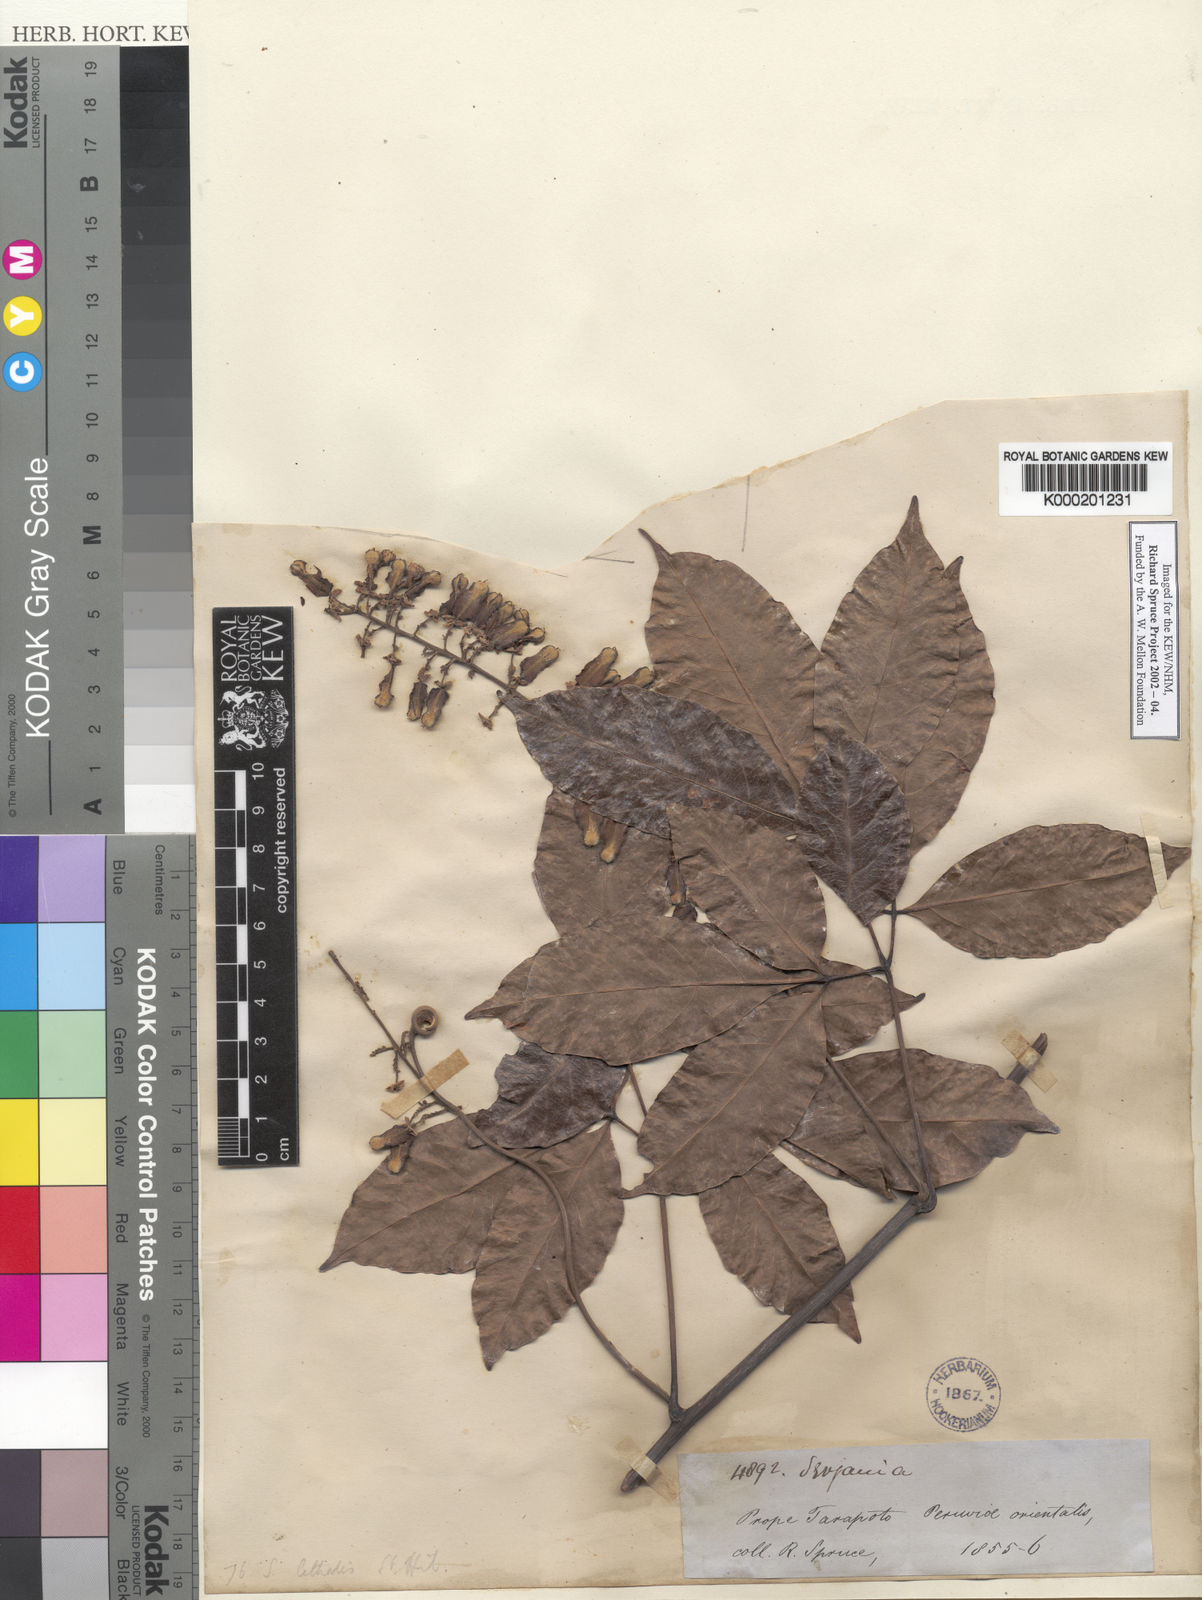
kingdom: Plantae
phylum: Tracheophyta
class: Magnoliopsida
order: Sapindales
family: Sapindaceae
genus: Serjania
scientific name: Serjania lethalis
